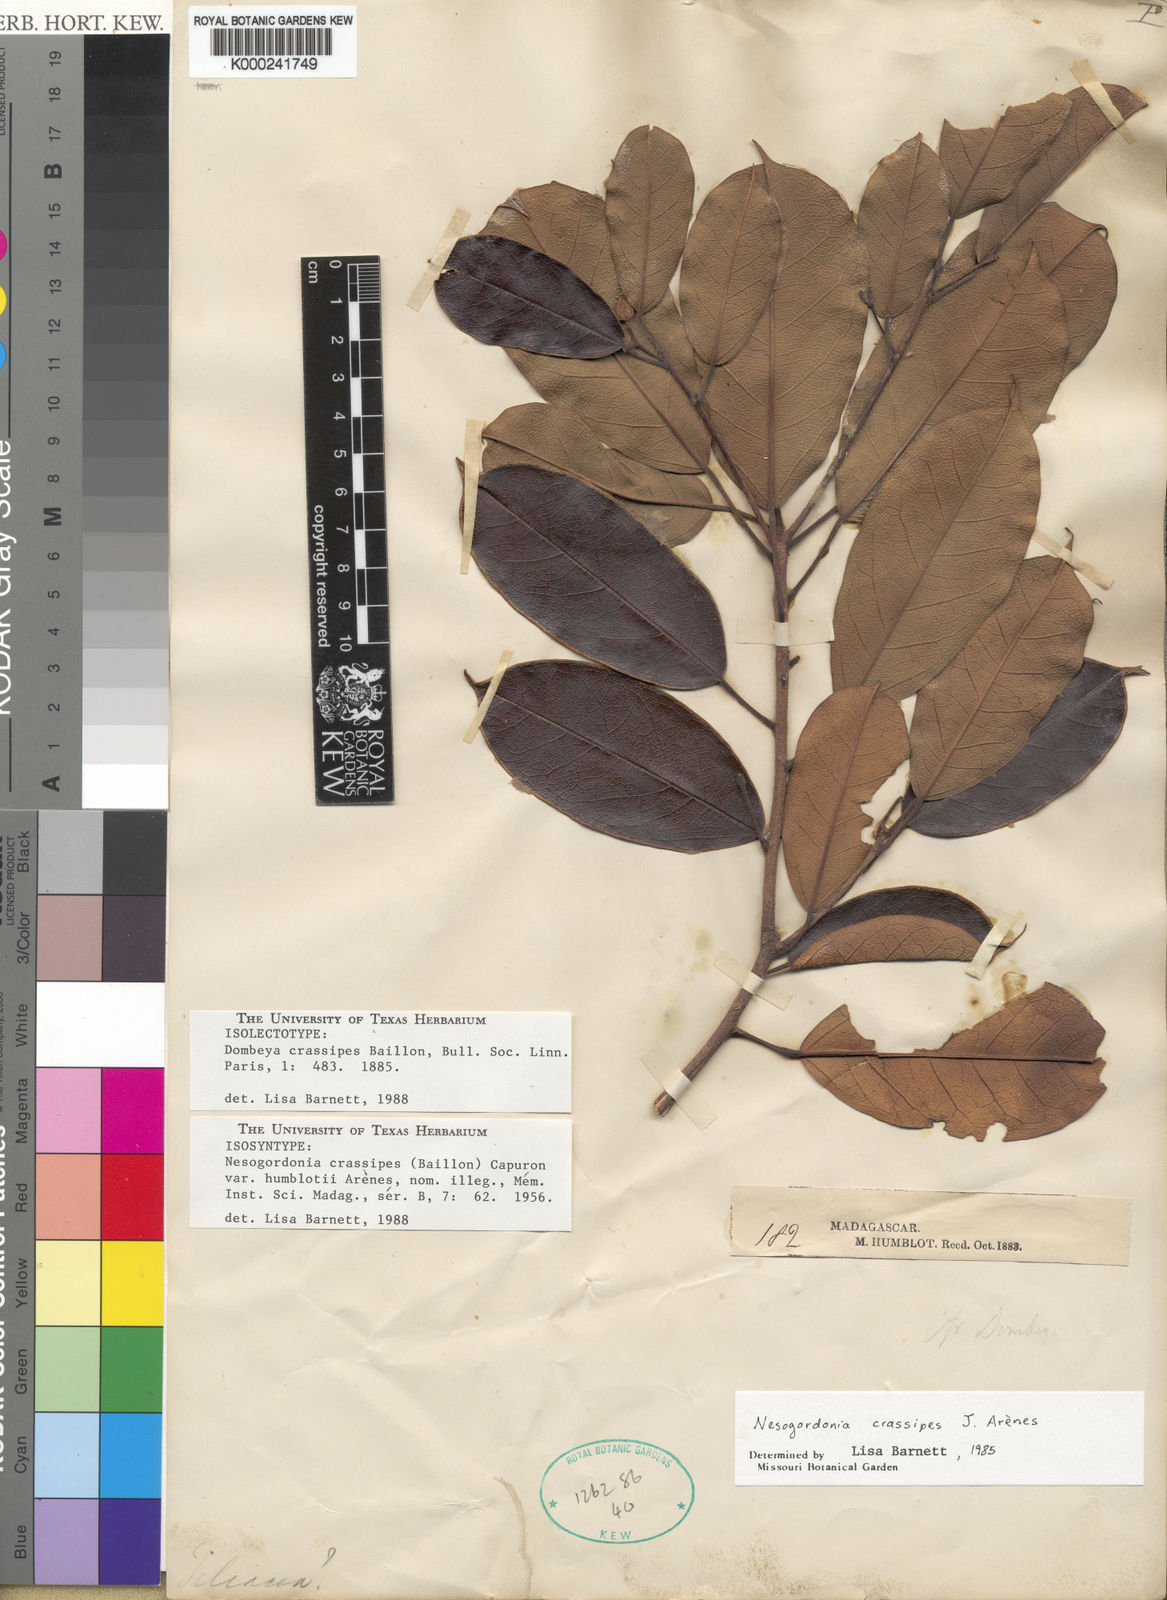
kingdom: Plantae
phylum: Tracheophyta
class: Magnoliopsida
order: Malvales
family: Malvaceae
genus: Nesogordonia
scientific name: Nesogordonia
